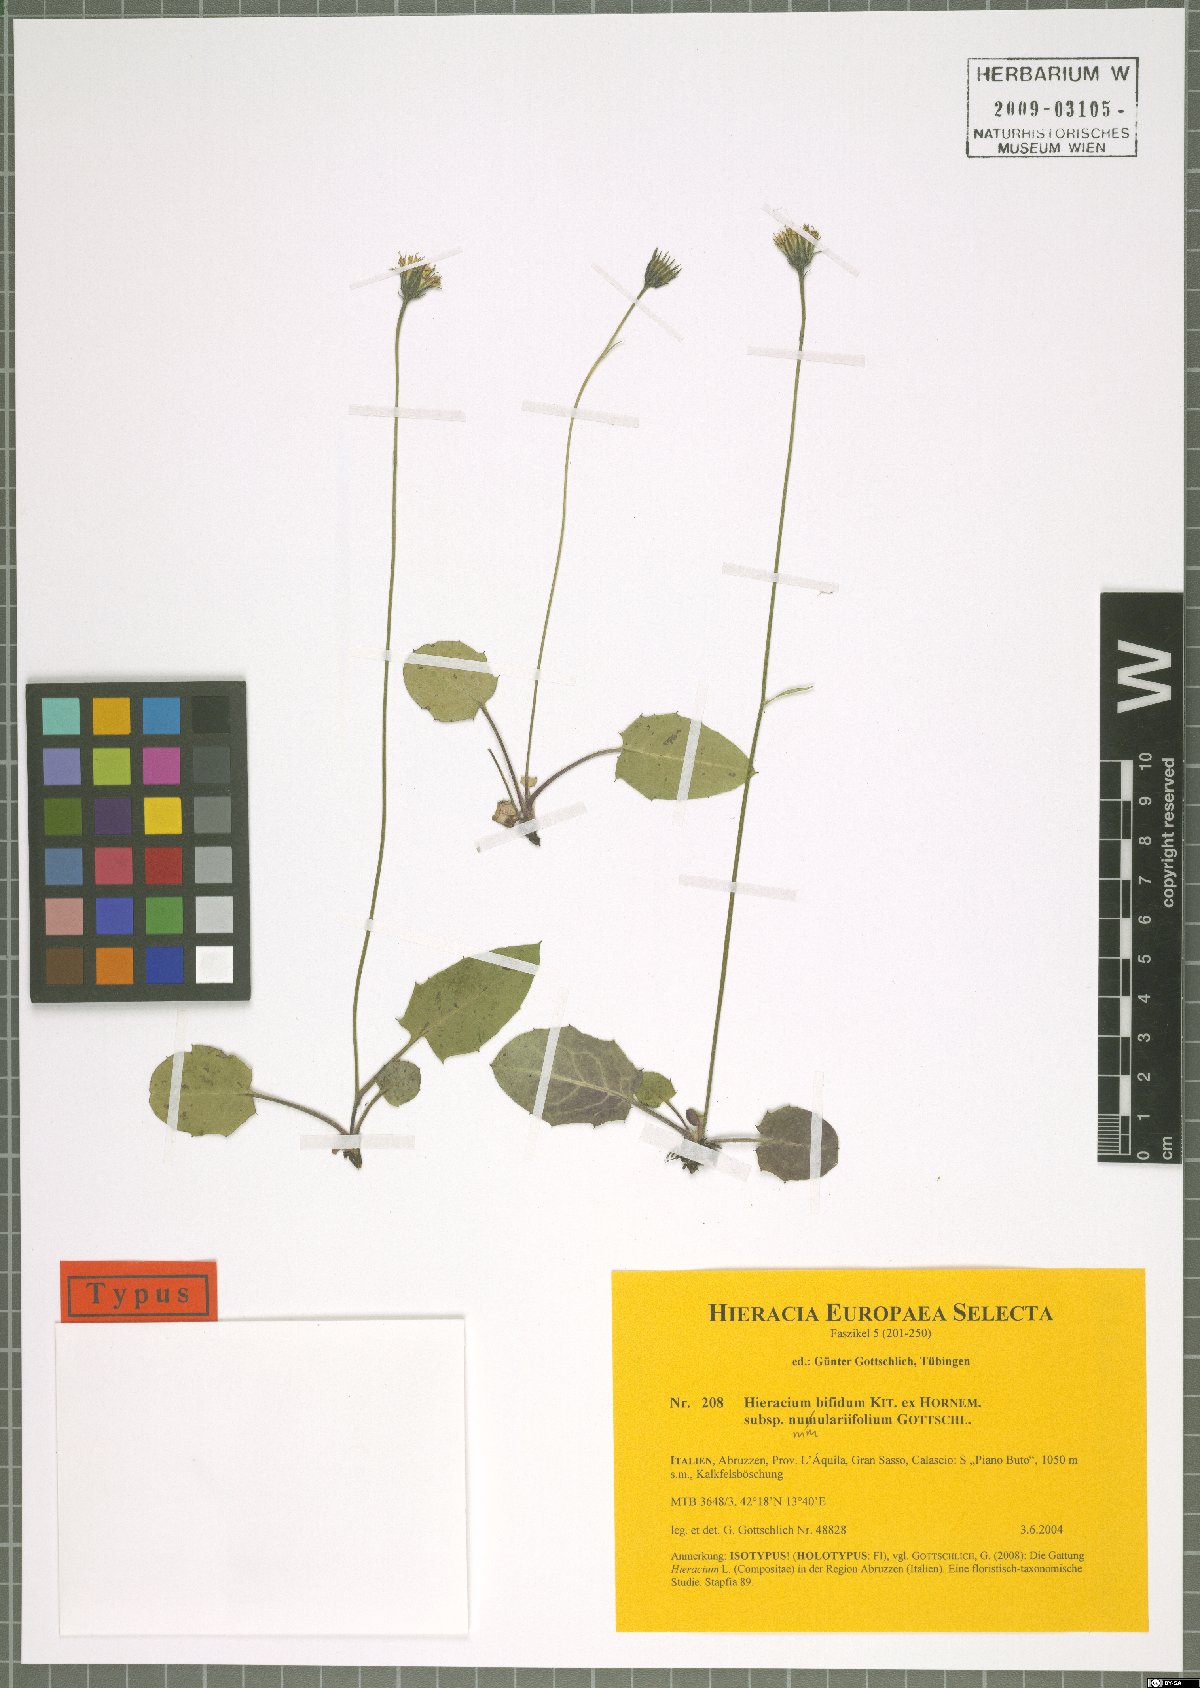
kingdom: Plantae
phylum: Tracheophyta
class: Magnoliopsida
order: Asterales
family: Asteraceae
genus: Hieracium
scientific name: Hieracium bifidum
